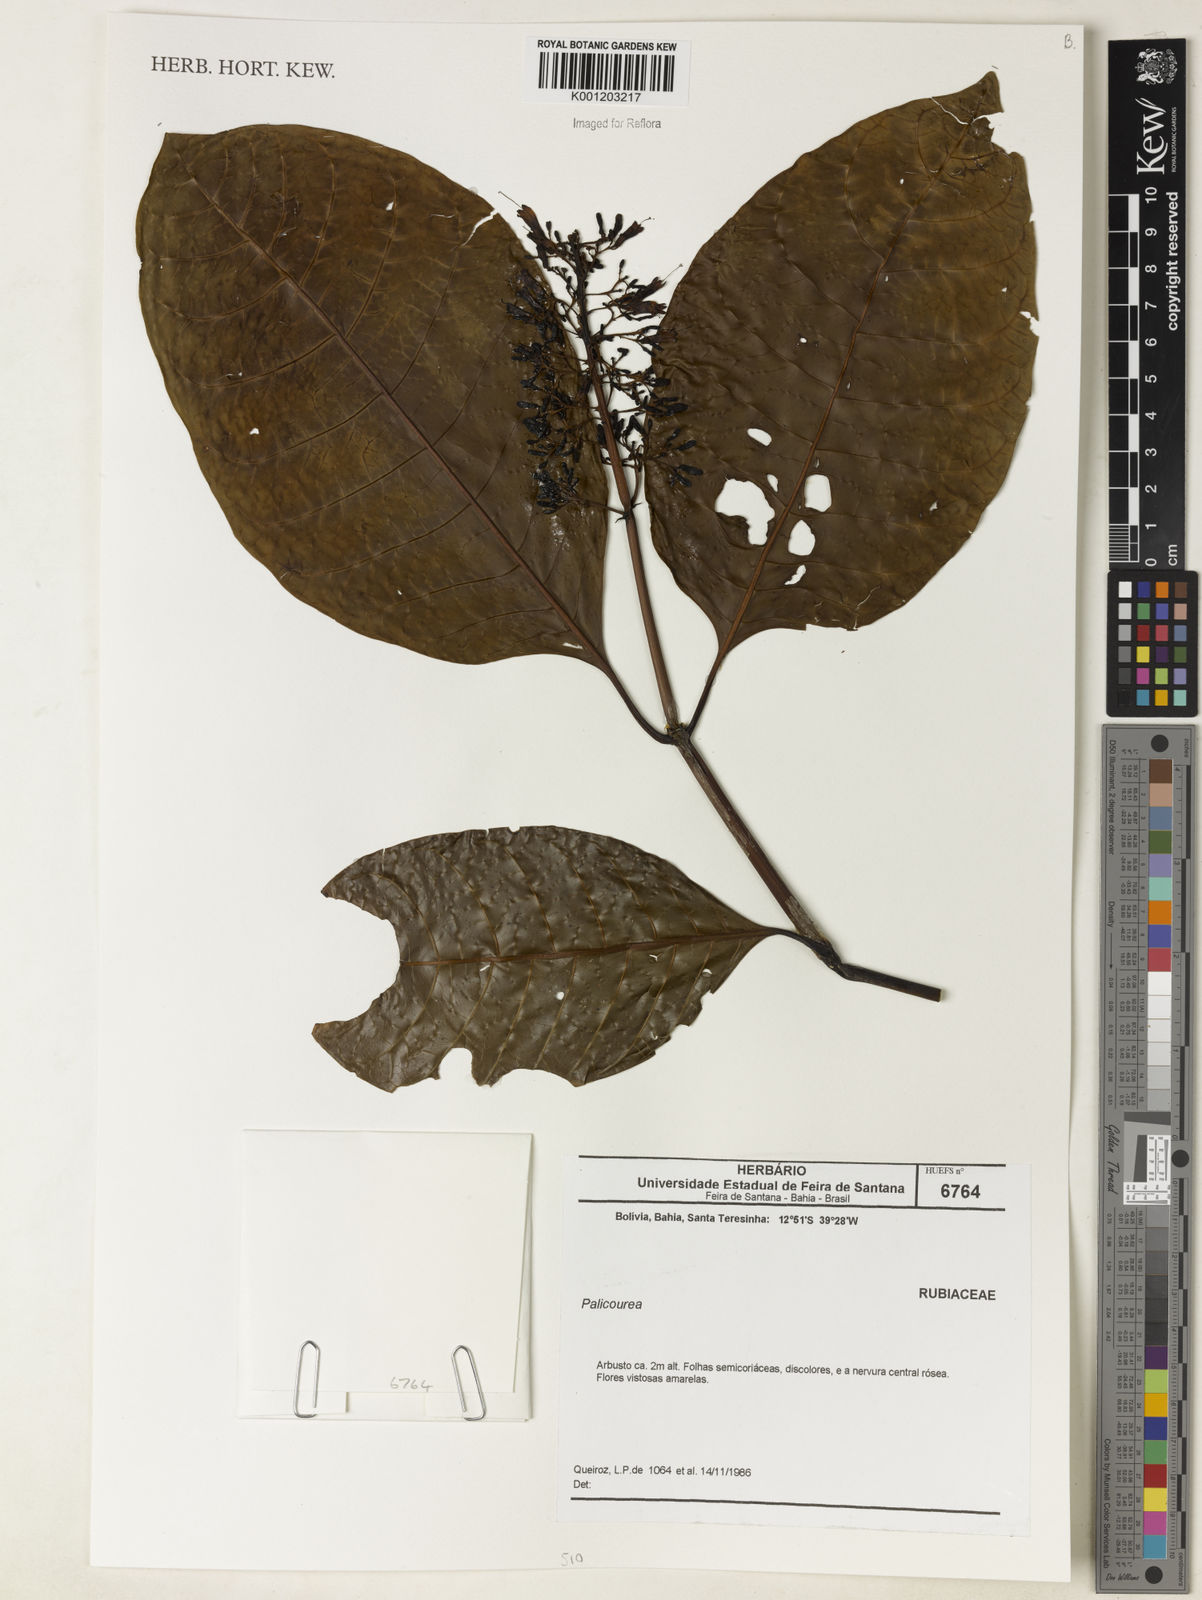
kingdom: Plantae
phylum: Tracheophyta
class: Magnoliopsida
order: Gentianales
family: Rubiaceae
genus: Palicourea
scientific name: Palicourea
